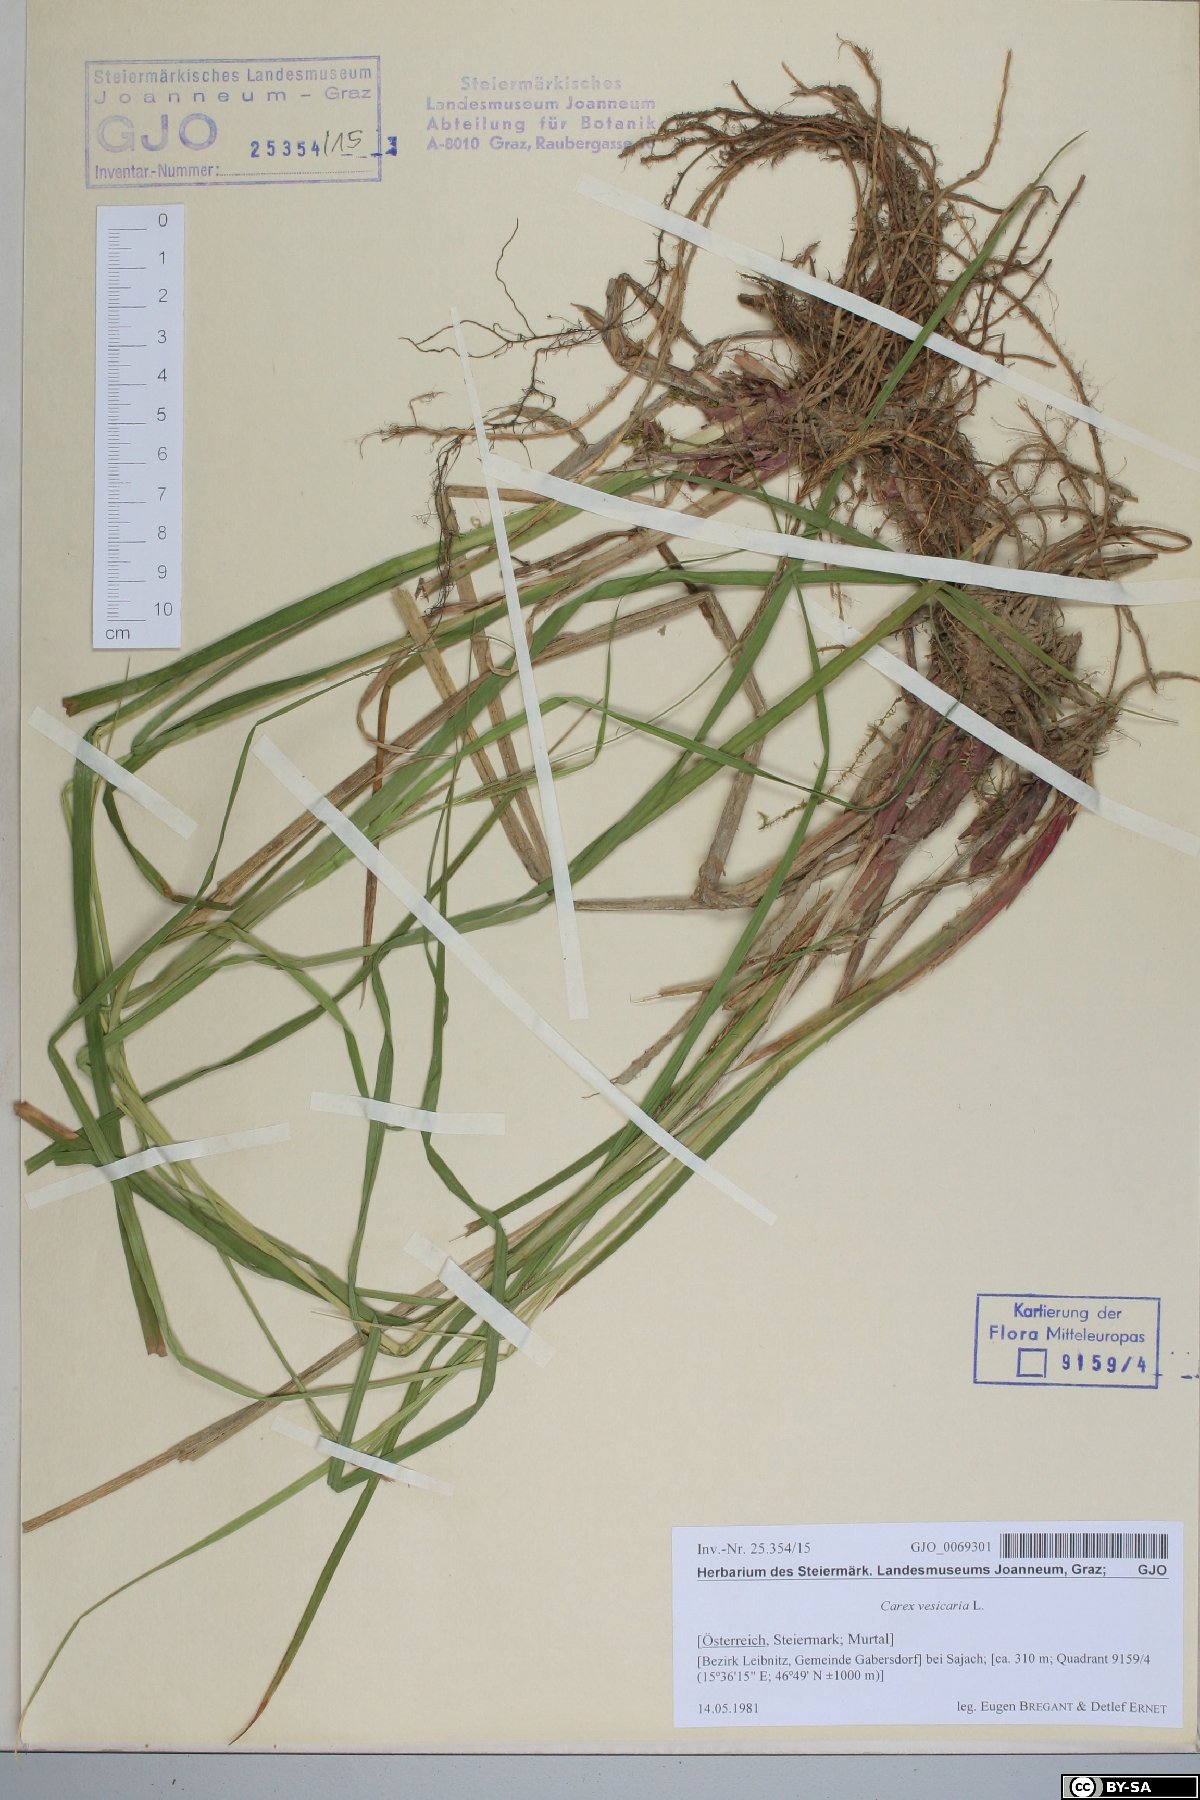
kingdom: Plantae
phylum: Tracheophyta
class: Liliopsida
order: Poales
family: Cyperaceae
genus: Carex
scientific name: Carex vesicaria
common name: Bladder-sedge
